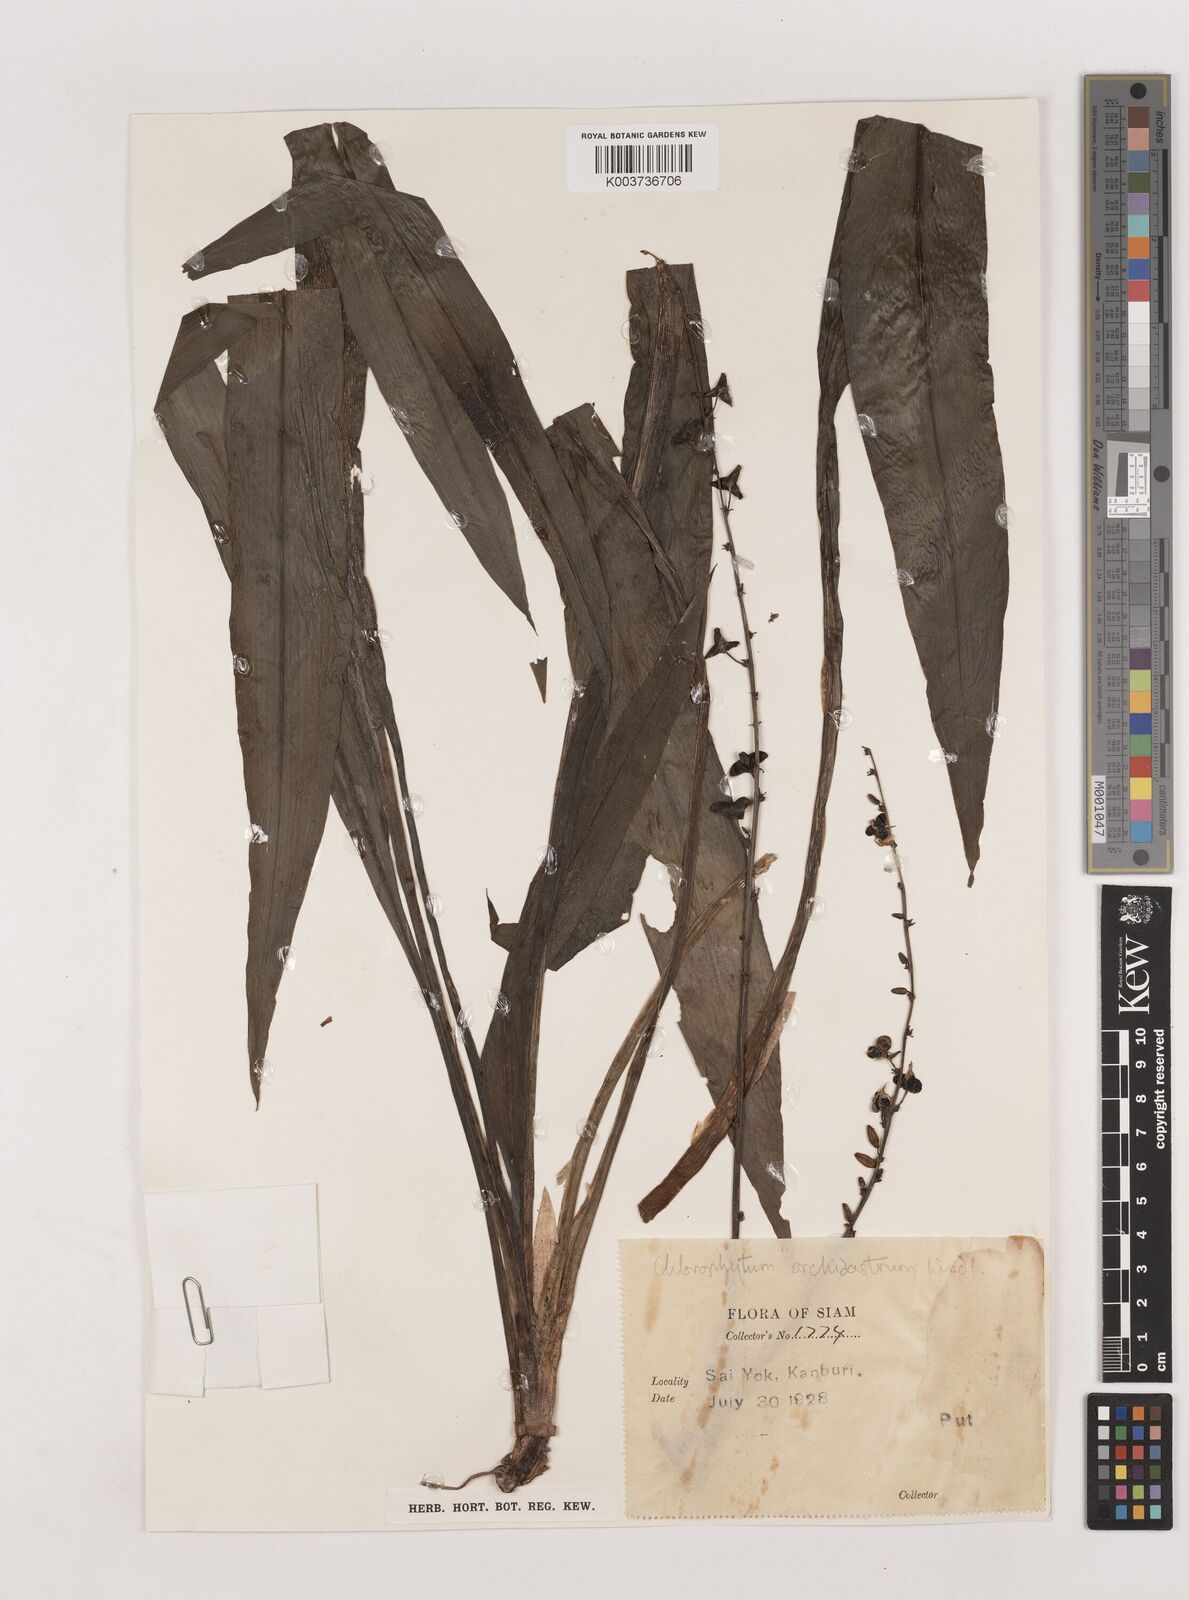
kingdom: Plantae
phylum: Tracheophyta
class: Liliopsida
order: Asparagales
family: Asparagaceae
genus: Chlorophytum
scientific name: Chlorophytum orchidastrum
